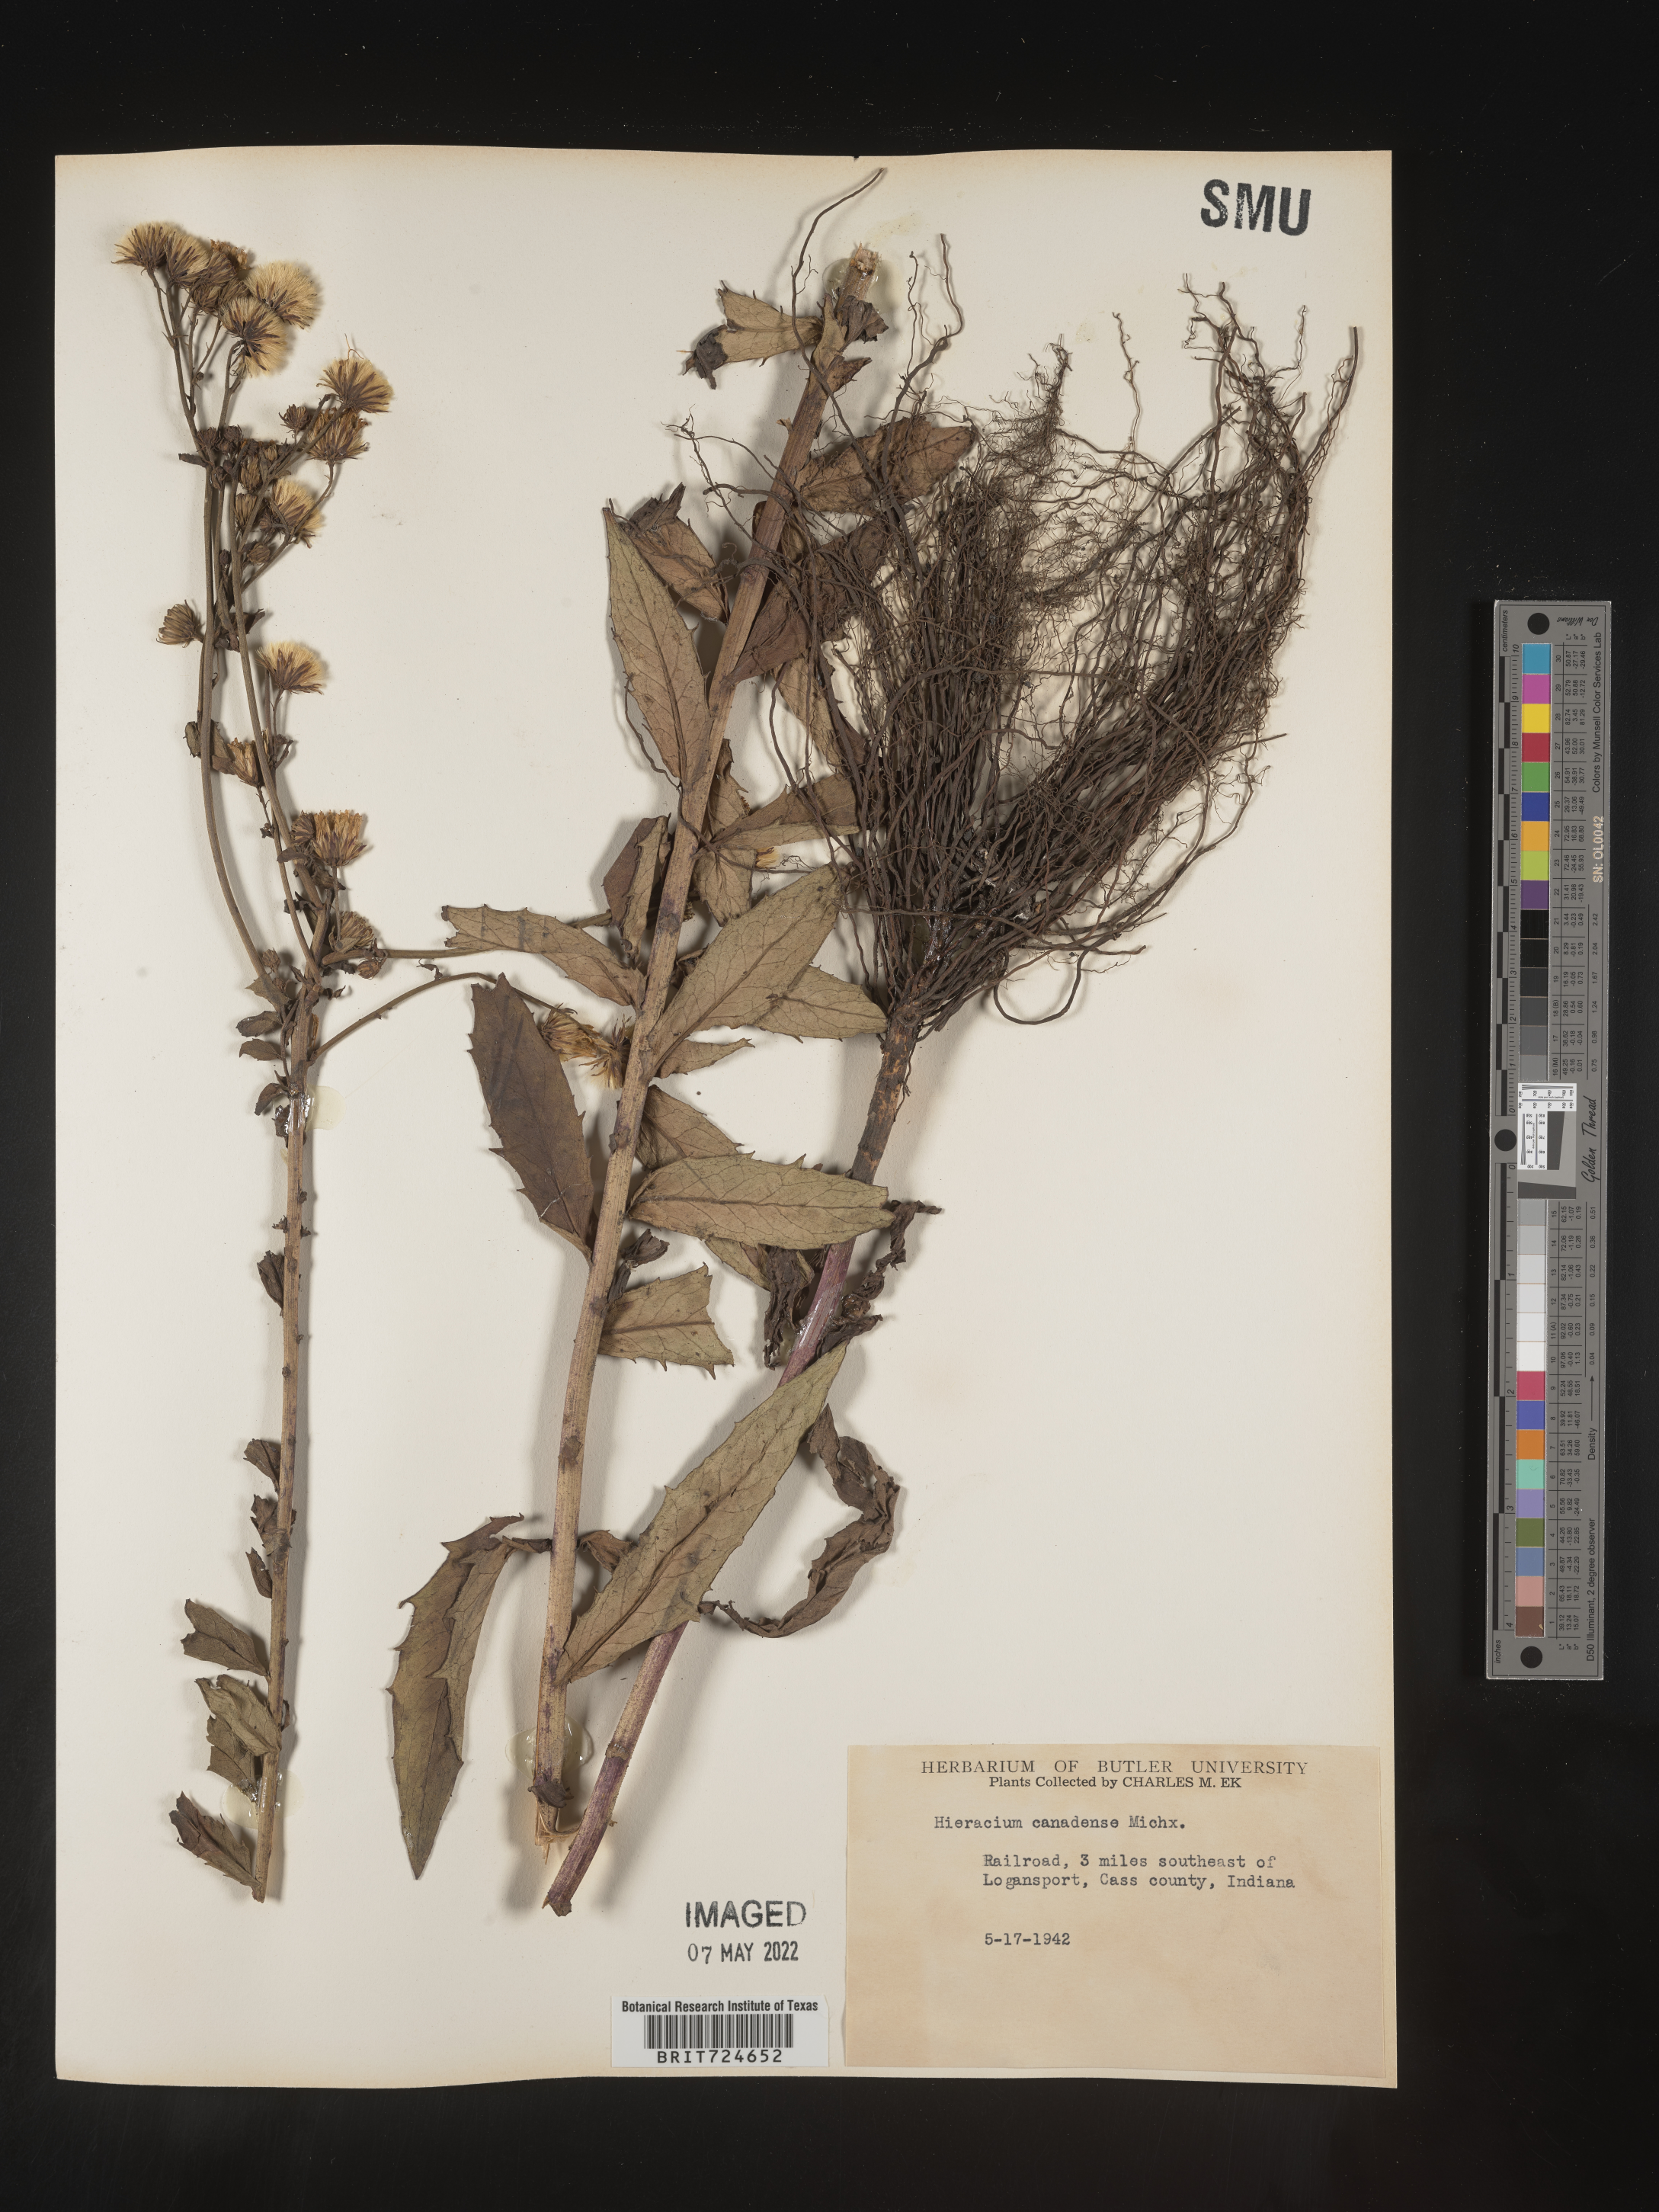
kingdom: Plantae
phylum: Tracheophyta
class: Magnoliopsida
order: Asterales
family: Asteraceae
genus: Hieracium
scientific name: Hieracium
